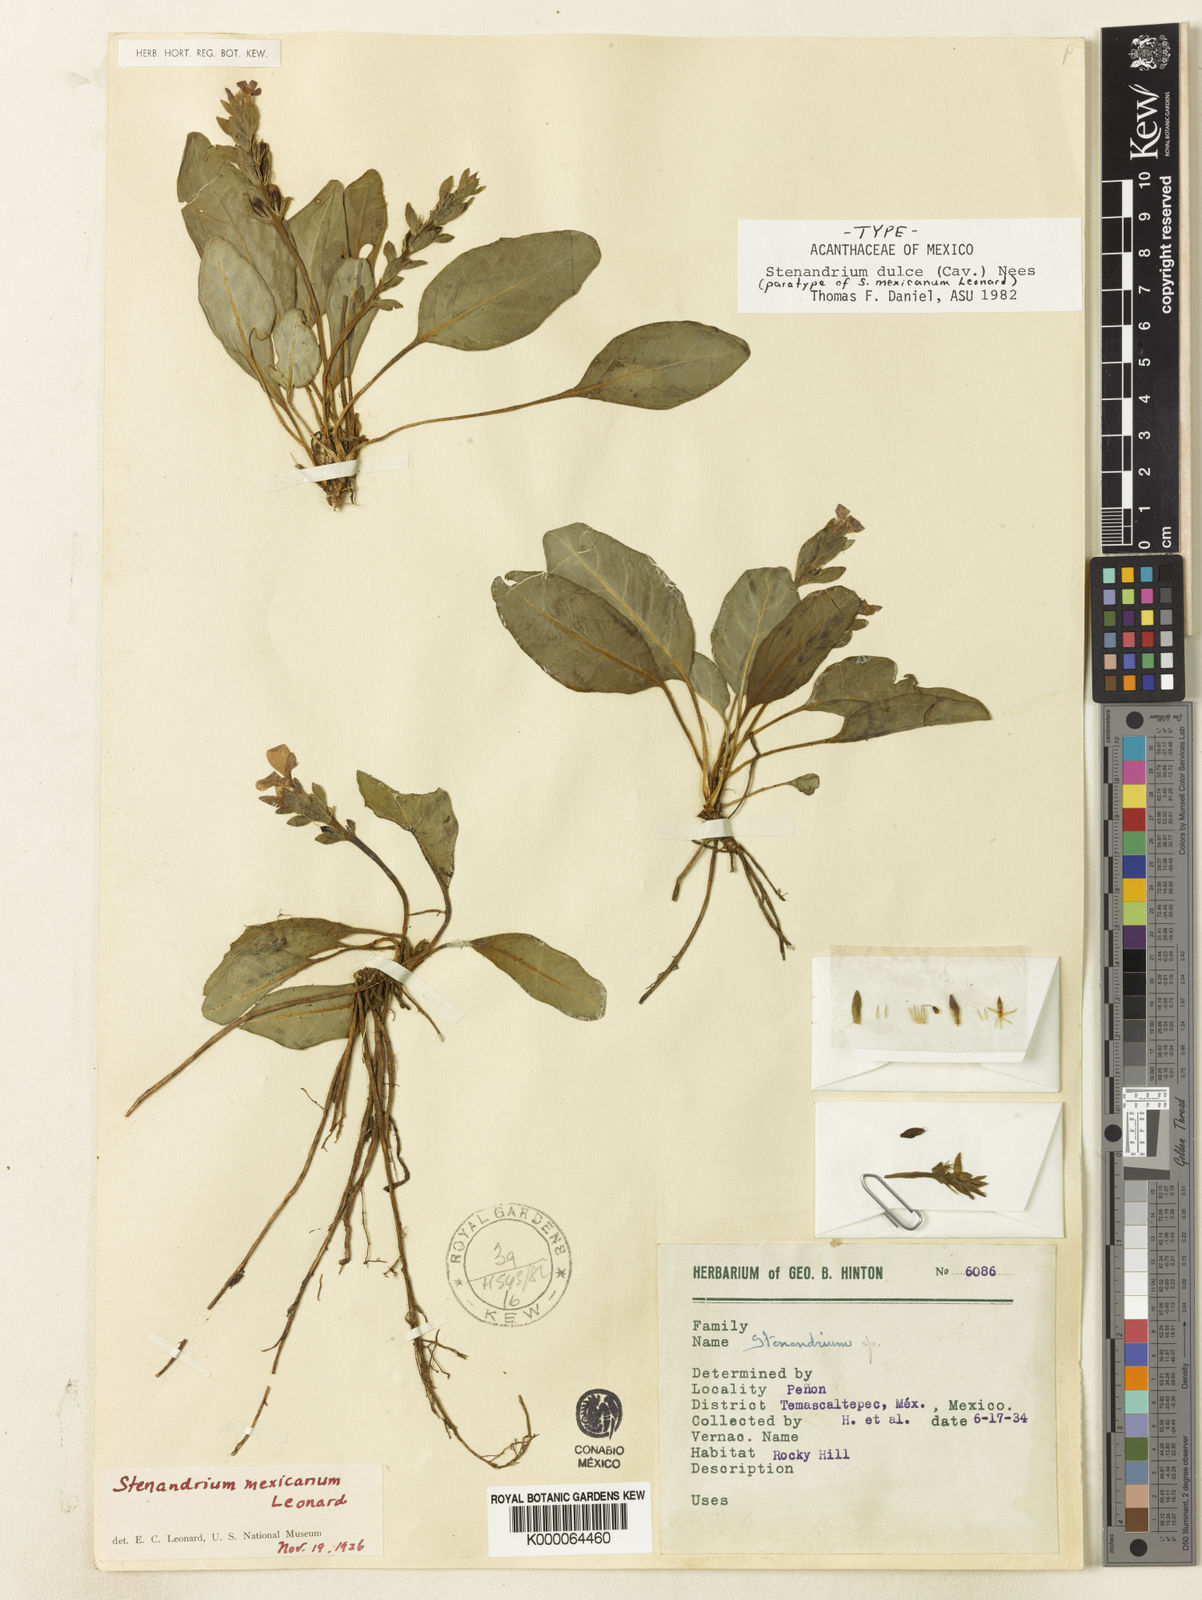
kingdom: Plantae
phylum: Tracheophyta
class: Magnoliopsida
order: Lamiales
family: Acanthaceae
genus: Stenandrium
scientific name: Stenandrium dulce
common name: Pinklet
